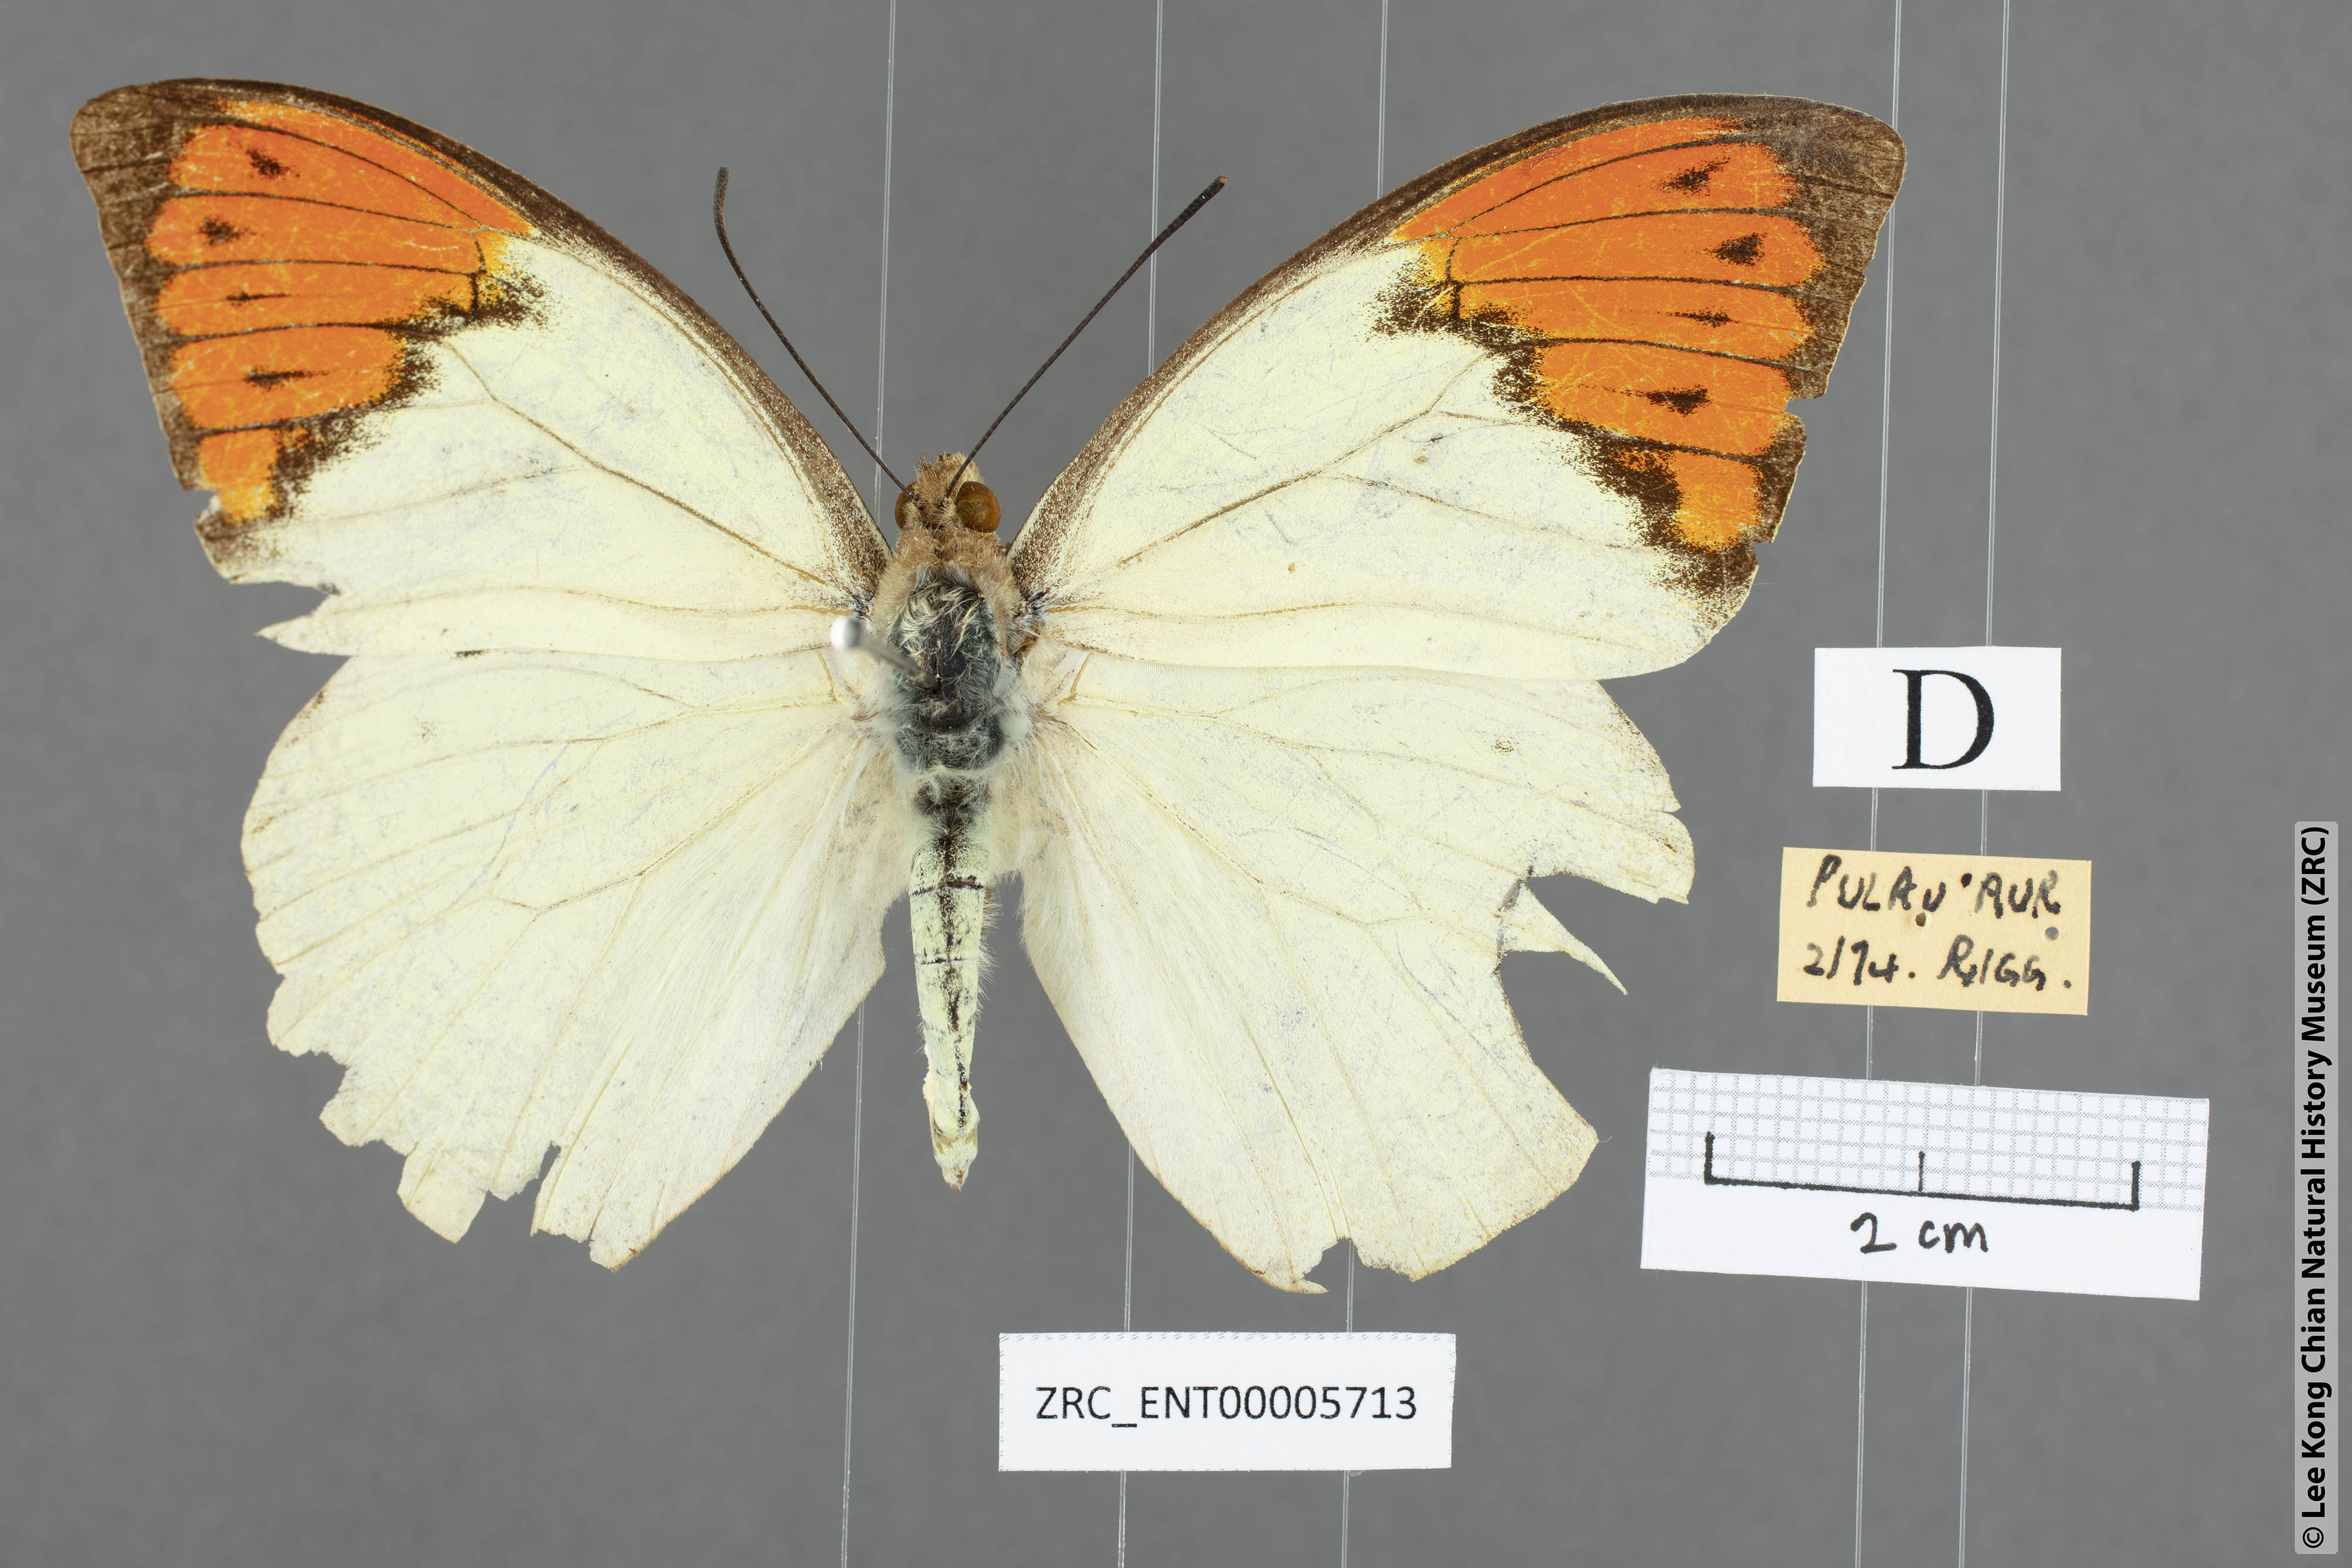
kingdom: Animalia
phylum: Arthropoda
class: Insecta
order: Lepidoptera
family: Pieridae
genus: Hebomoia
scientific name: Hebomoia glaucippe
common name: Great orange tip
